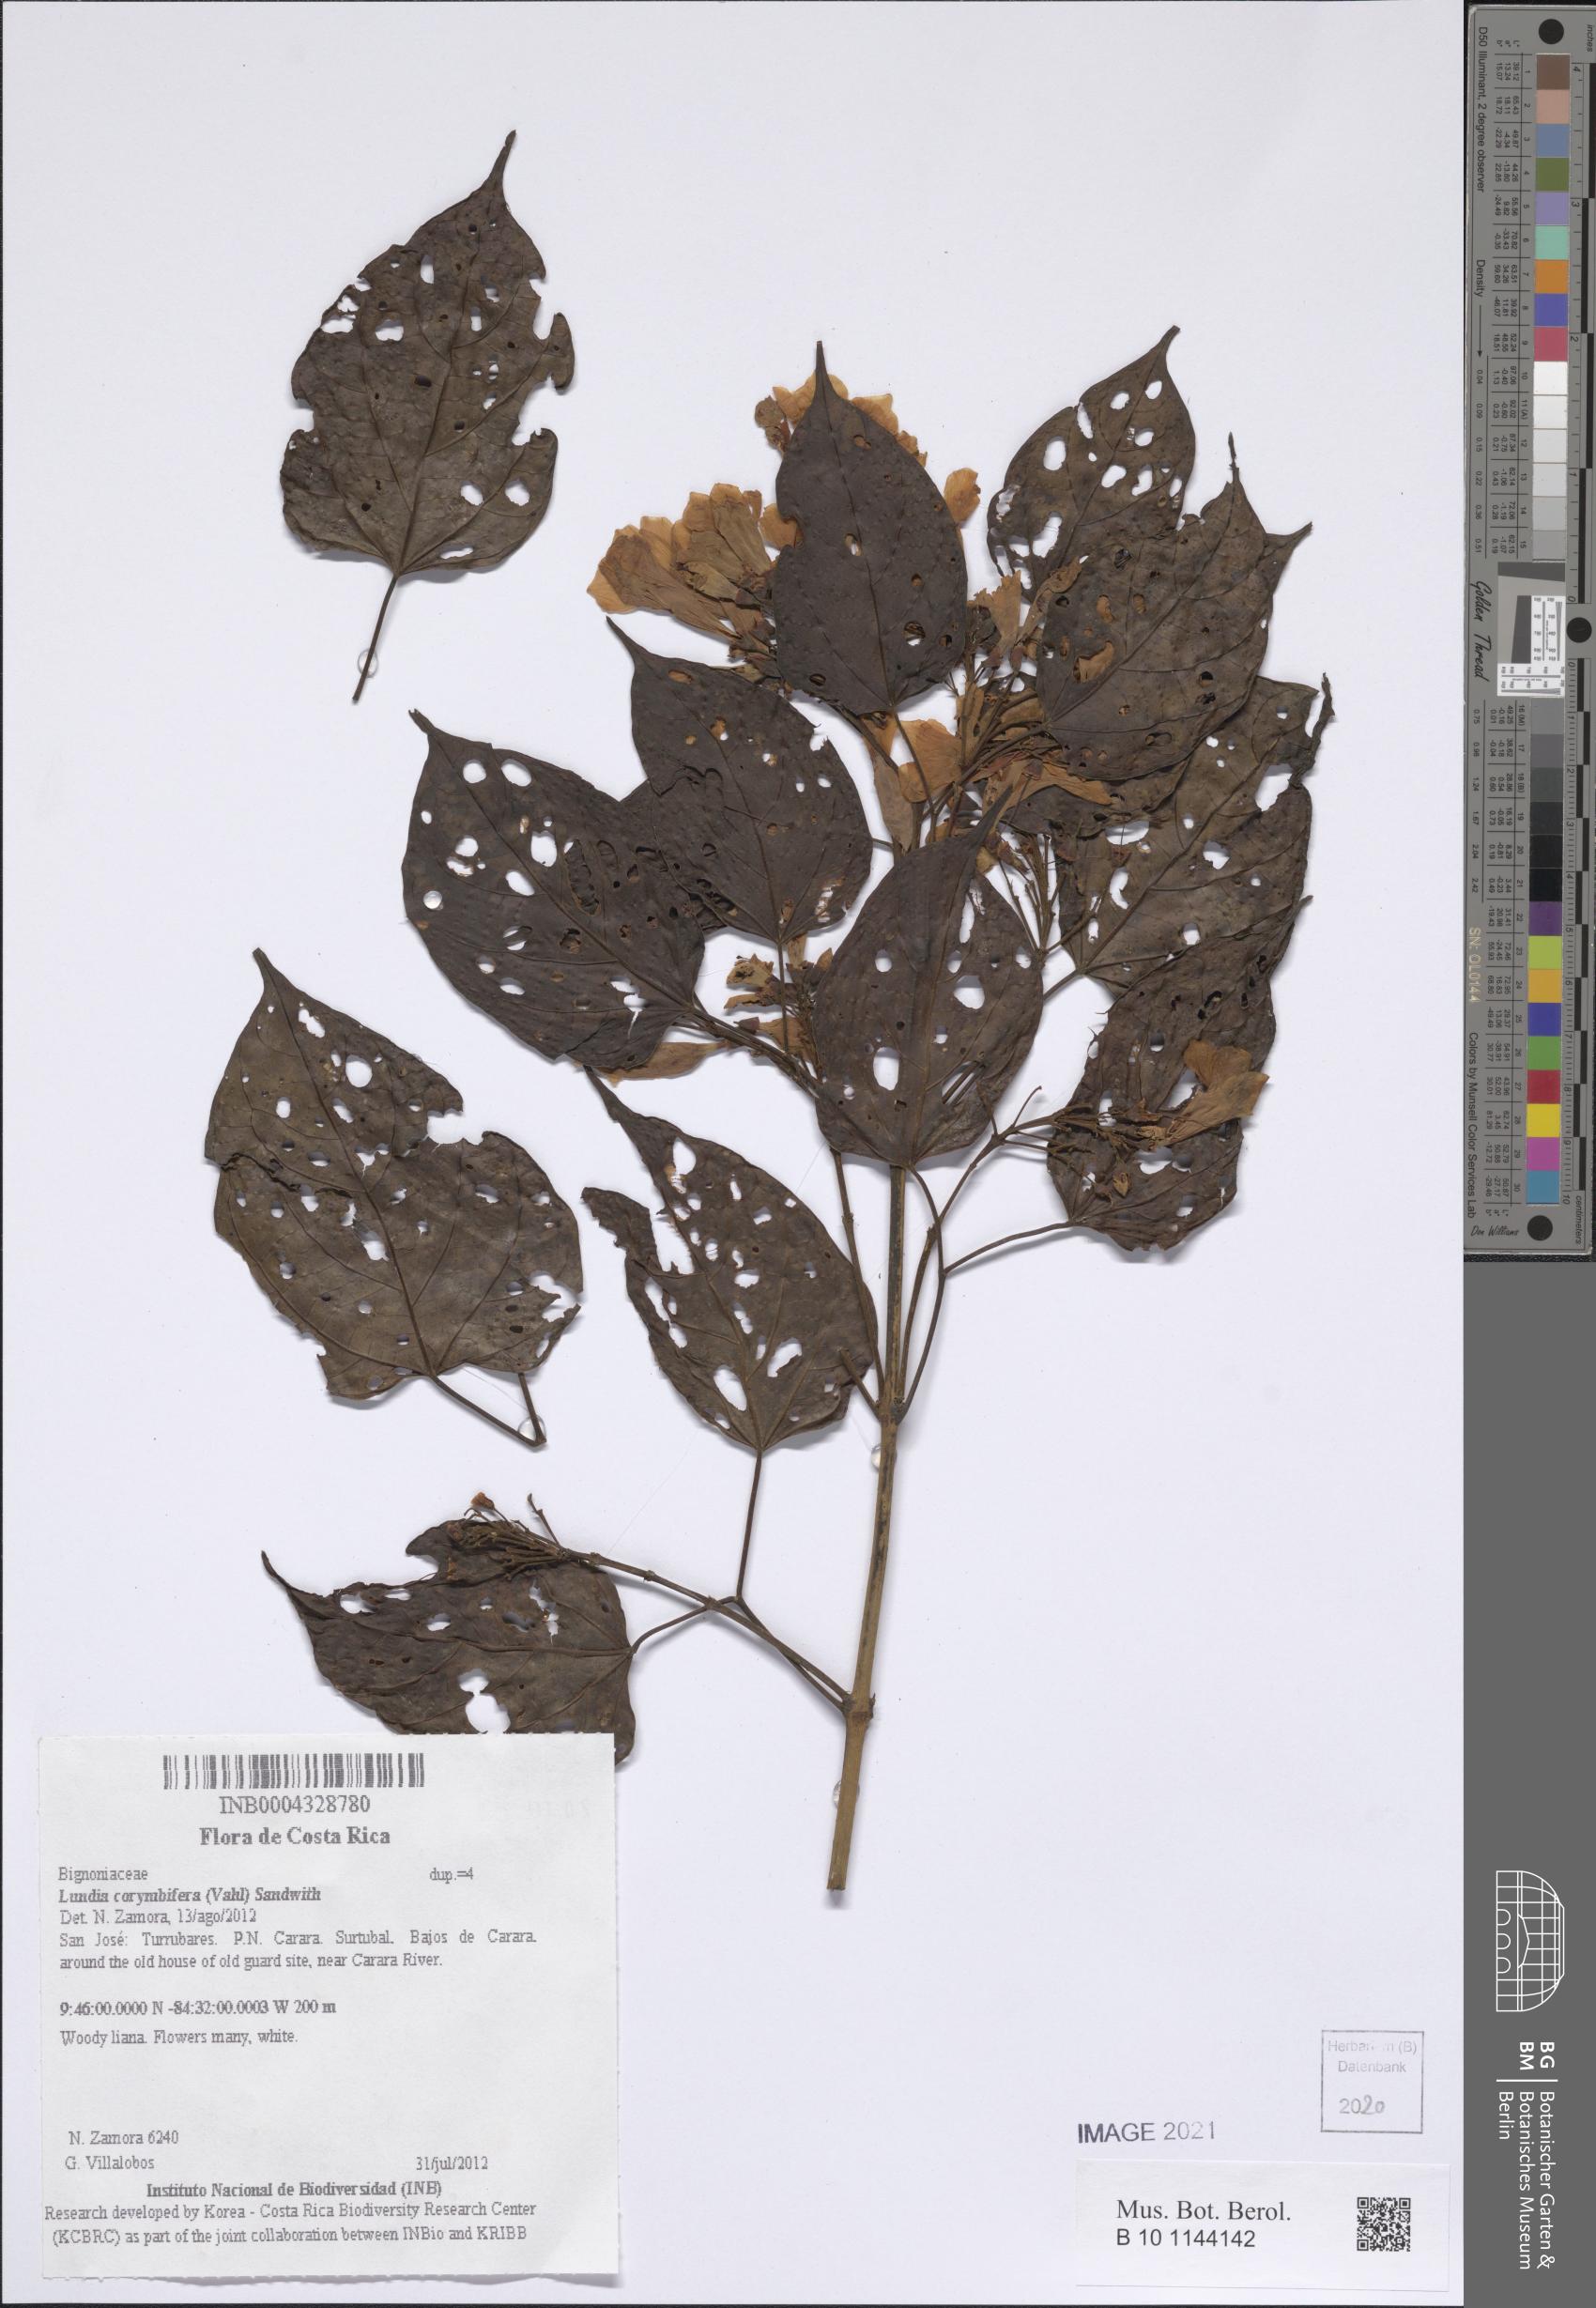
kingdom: Plantae
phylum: Tracheophyta
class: Magnoliopsida
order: Lamiales
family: Bignoniaceae
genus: Lundia
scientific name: Lundia corymbifera
